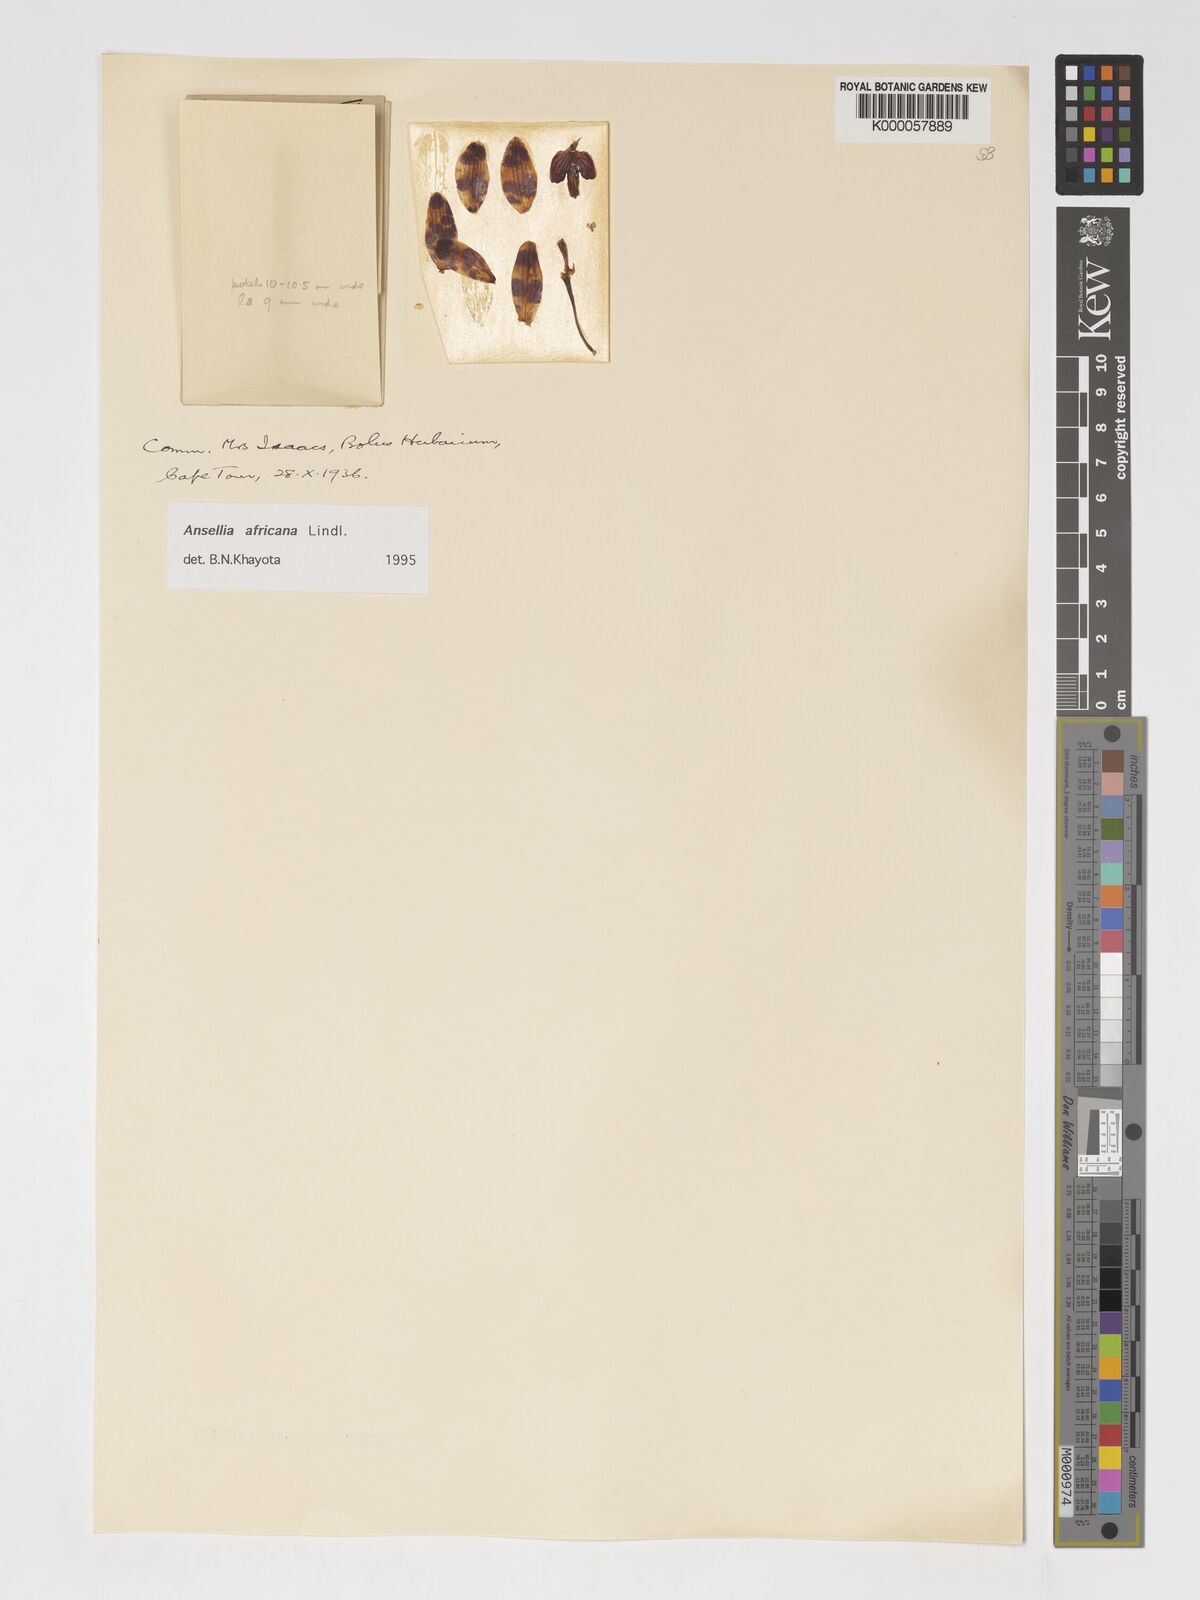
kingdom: Plantae
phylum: Tracheophyta
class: Liliopsida
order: Asparagales
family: Orchidaceae
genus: Ansellia
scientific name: Ansellia africana
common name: African ansellia
